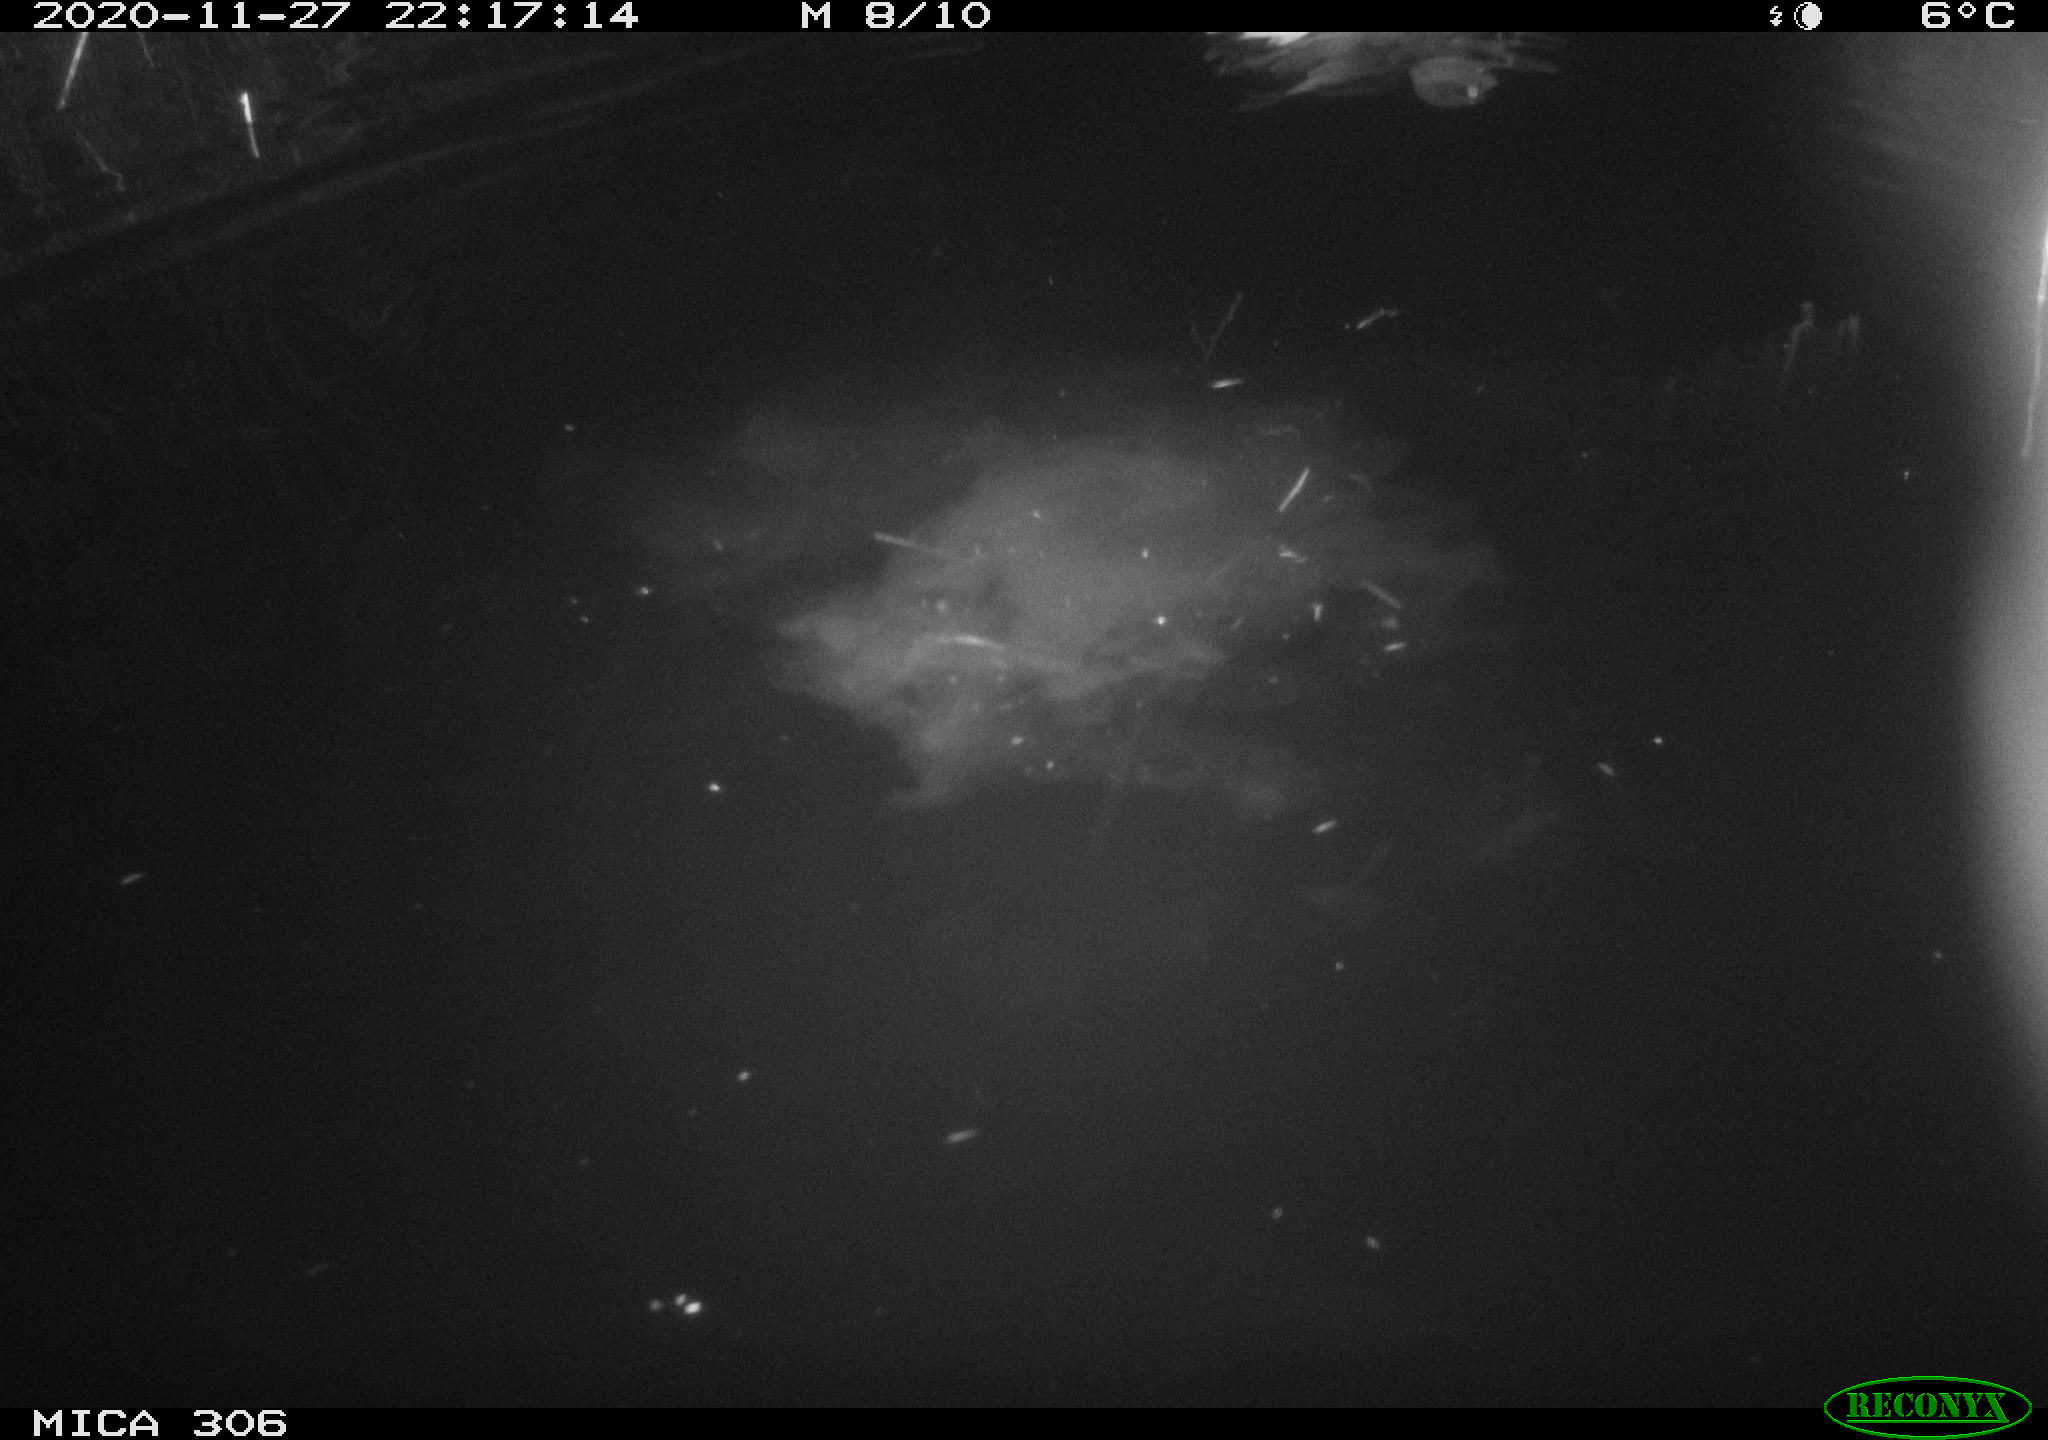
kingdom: Animalia
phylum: Chordata
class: Aves
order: Anseriformes
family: Anatidae
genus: Anas
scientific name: Anas platyrhynchos
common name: Mallard
